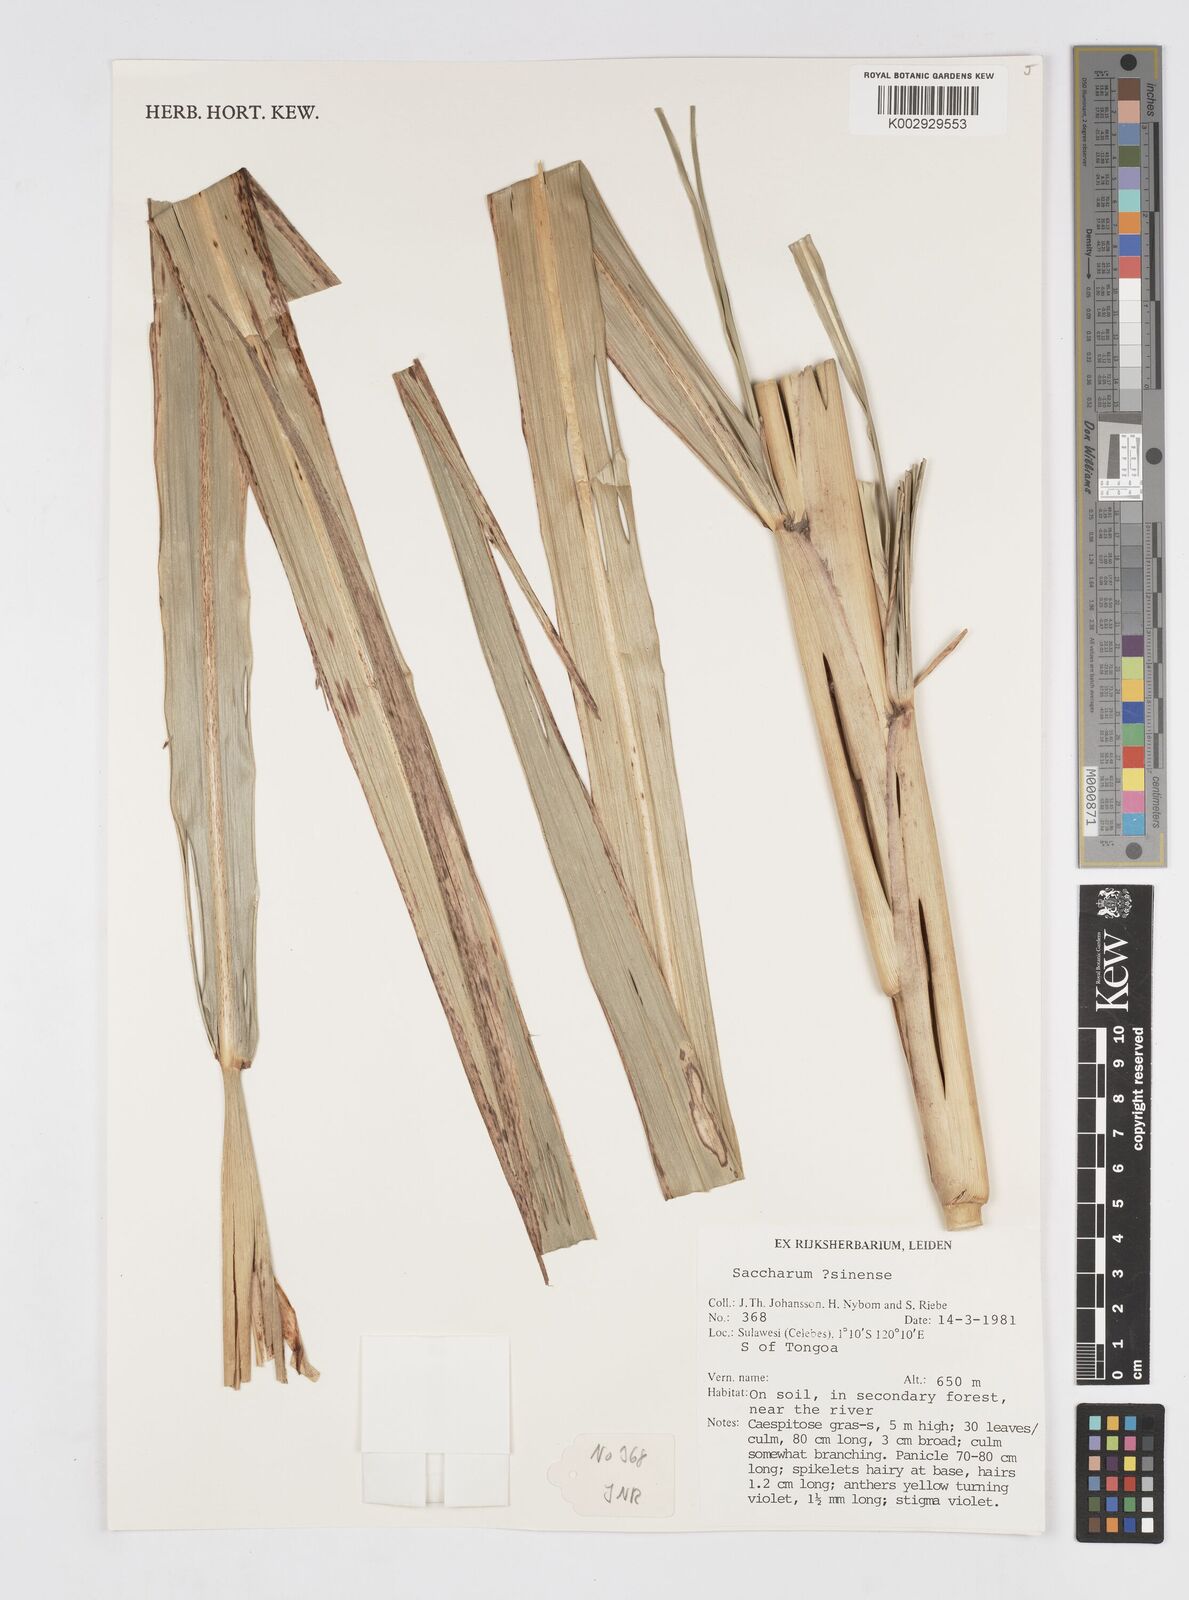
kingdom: Plantae
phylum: Tracheophyta
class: Liliopsida
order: Poales
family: Poaceae
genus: Saccharum
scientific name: Saccharum
